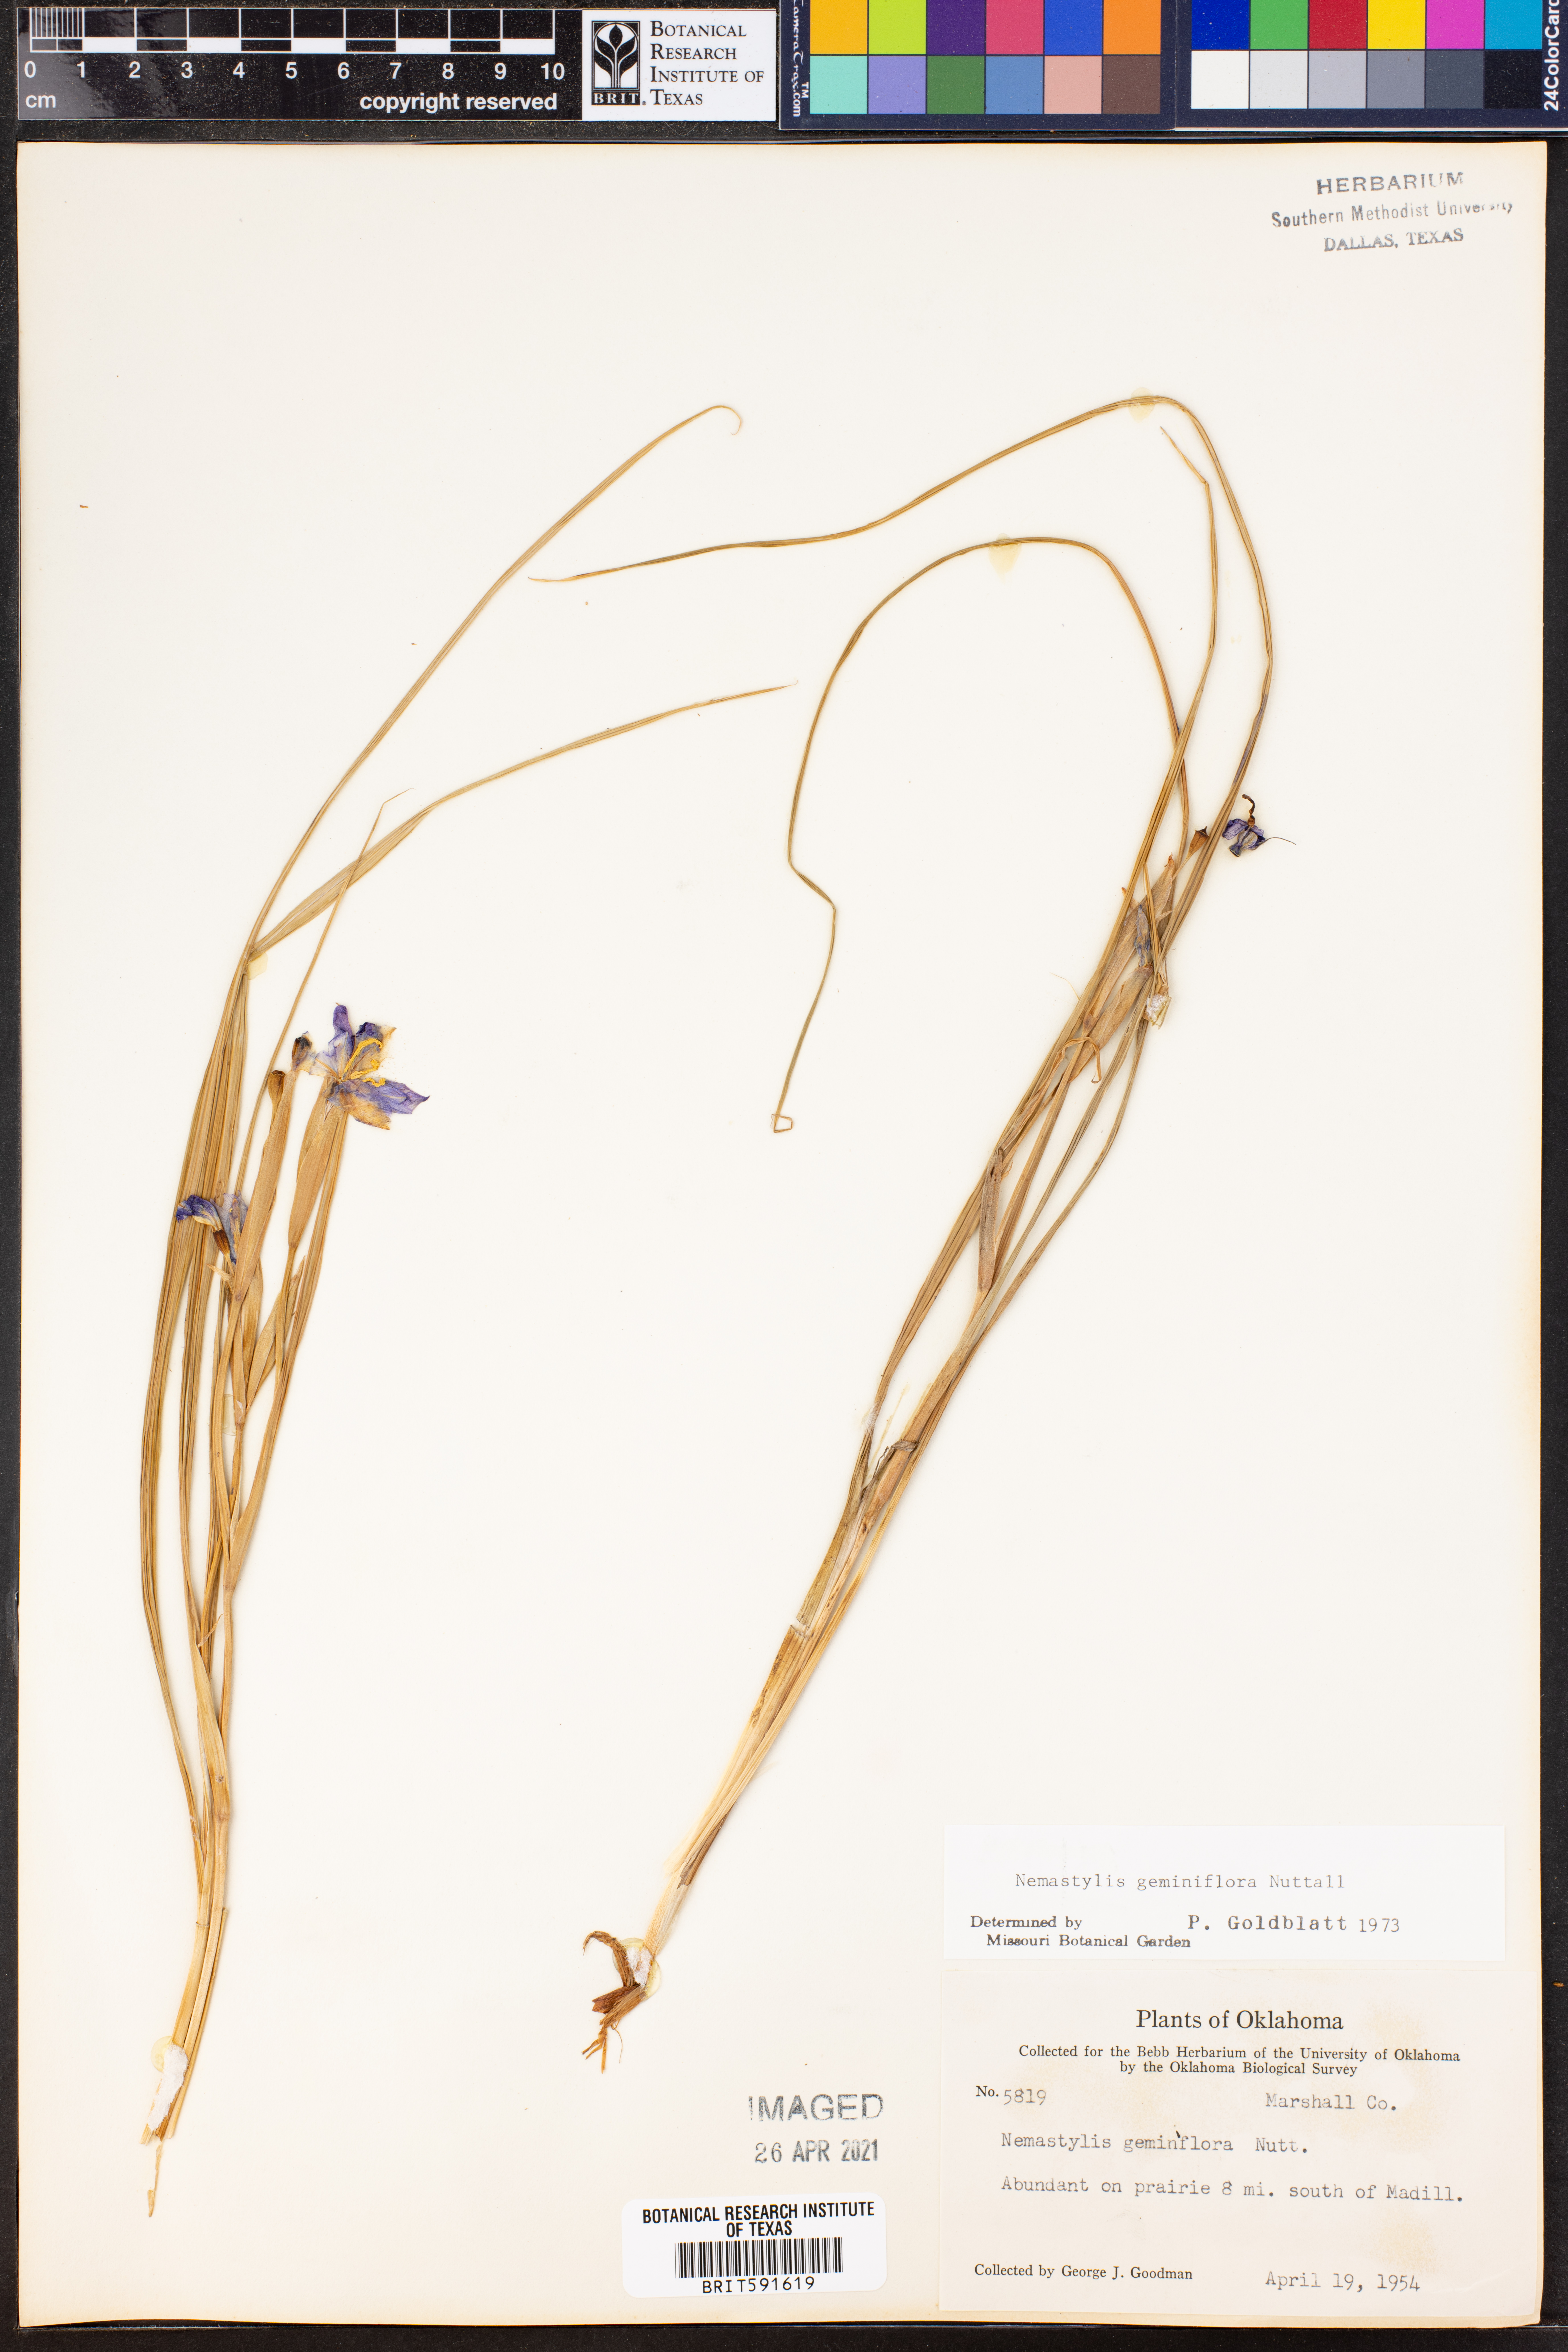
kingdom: Plantae
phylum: Tracheophyta
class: Liliopsida
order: Asparagales
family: Iridaceae
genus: Nemastylis
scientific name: Nemastylis geminiflora
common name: Prairie celestial
